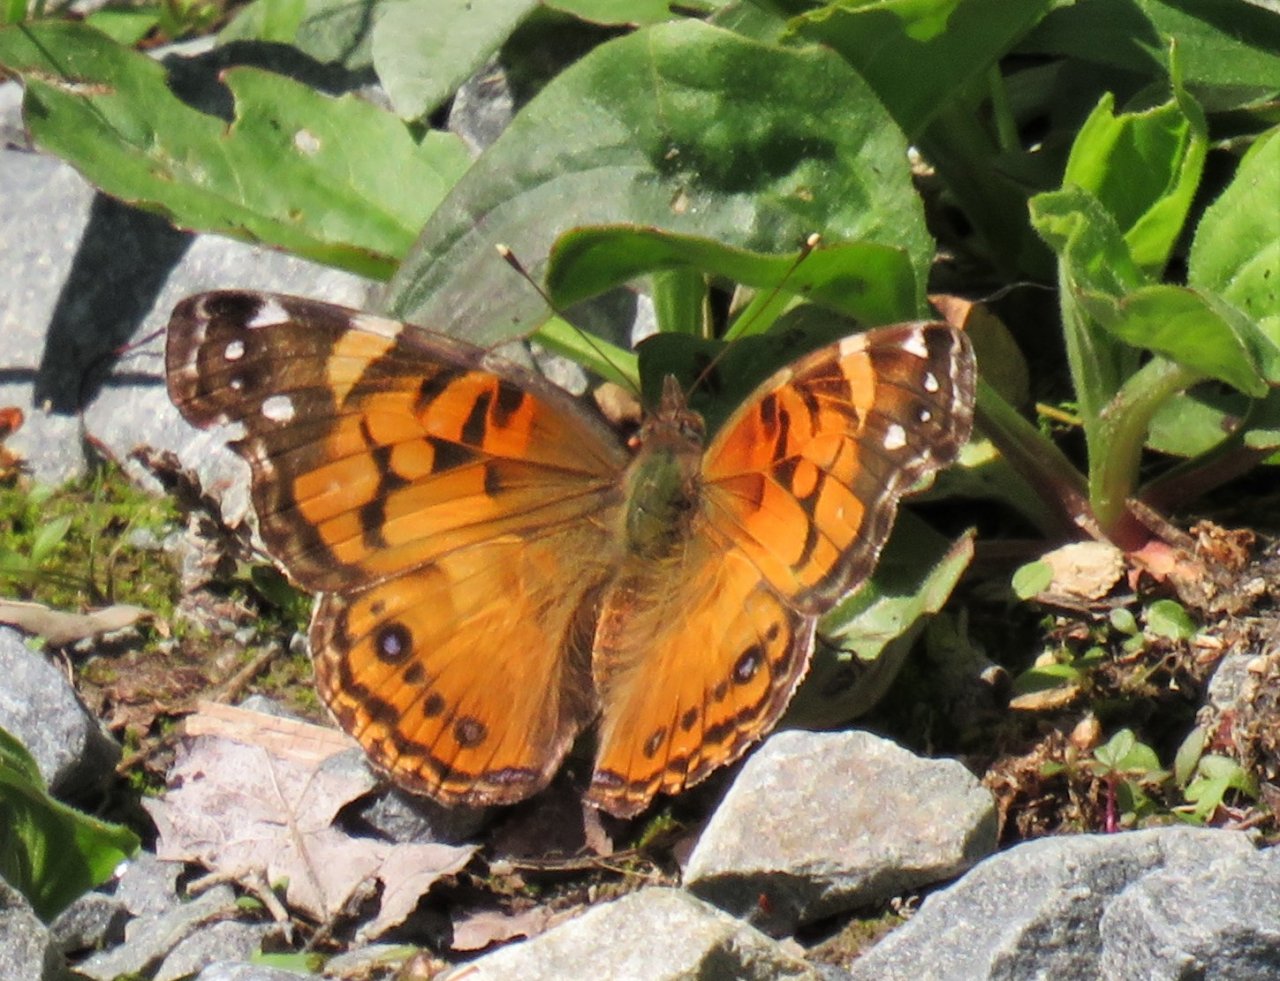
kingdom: Animalia
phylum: Arthropoda
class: Insecta
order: Lepidoptera
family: Nymphalidae
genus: Vanessa
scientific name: Vanessa virginiensis
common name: American Lady
